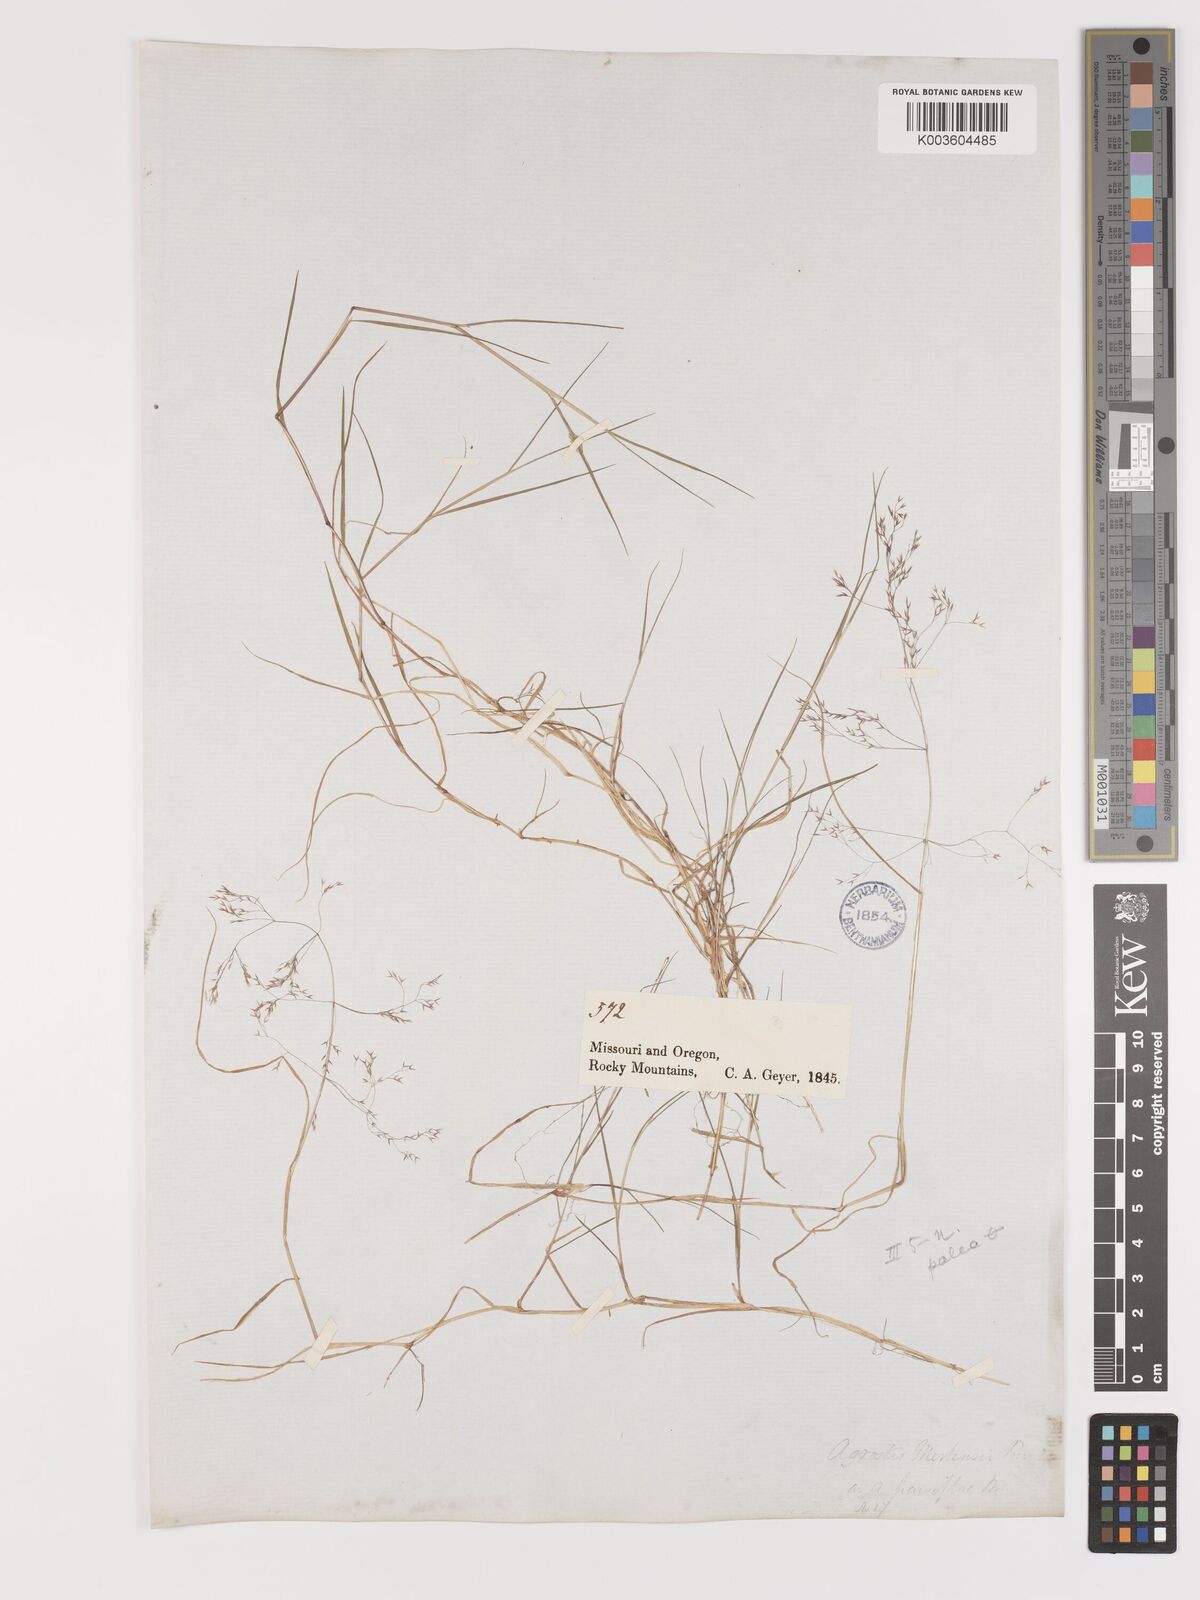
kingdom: Plantae
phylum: Tracheophyta
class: Liliopsida
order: Poales
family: Poaceae
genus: Agrostis
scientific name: Agrostis hyemalis
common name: Small bent
